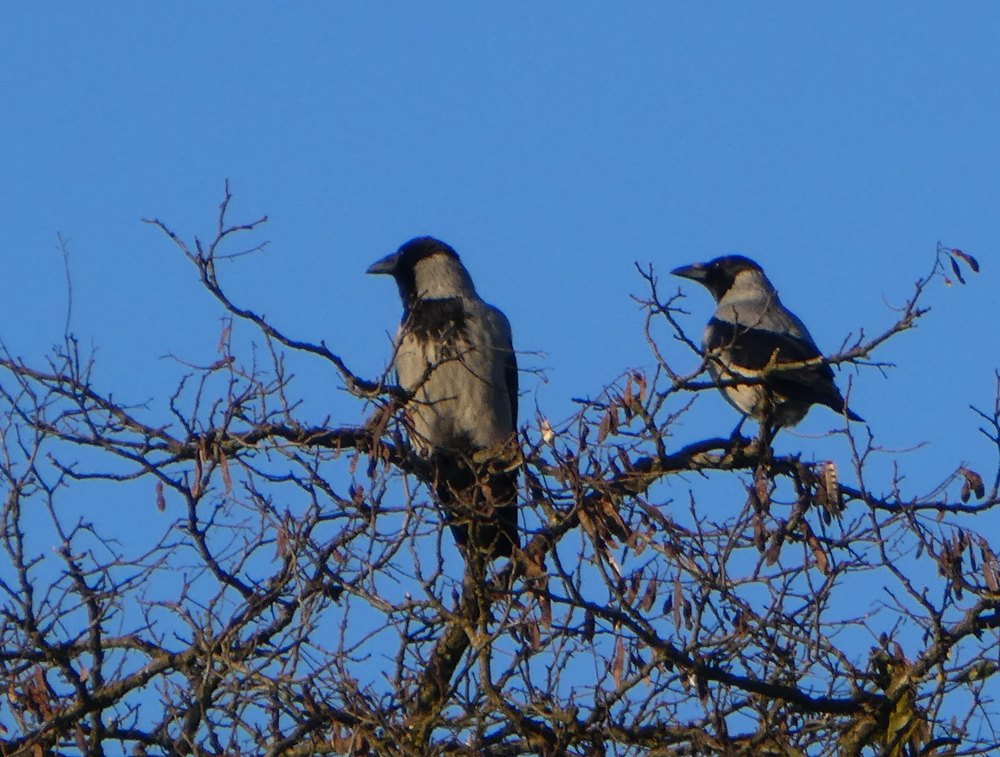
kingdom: Animalia
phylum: Chordata
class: Aves
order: Passeriformes
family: Corvidae
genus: Corvus
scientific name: Corvus cornix
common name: Hooded crow
